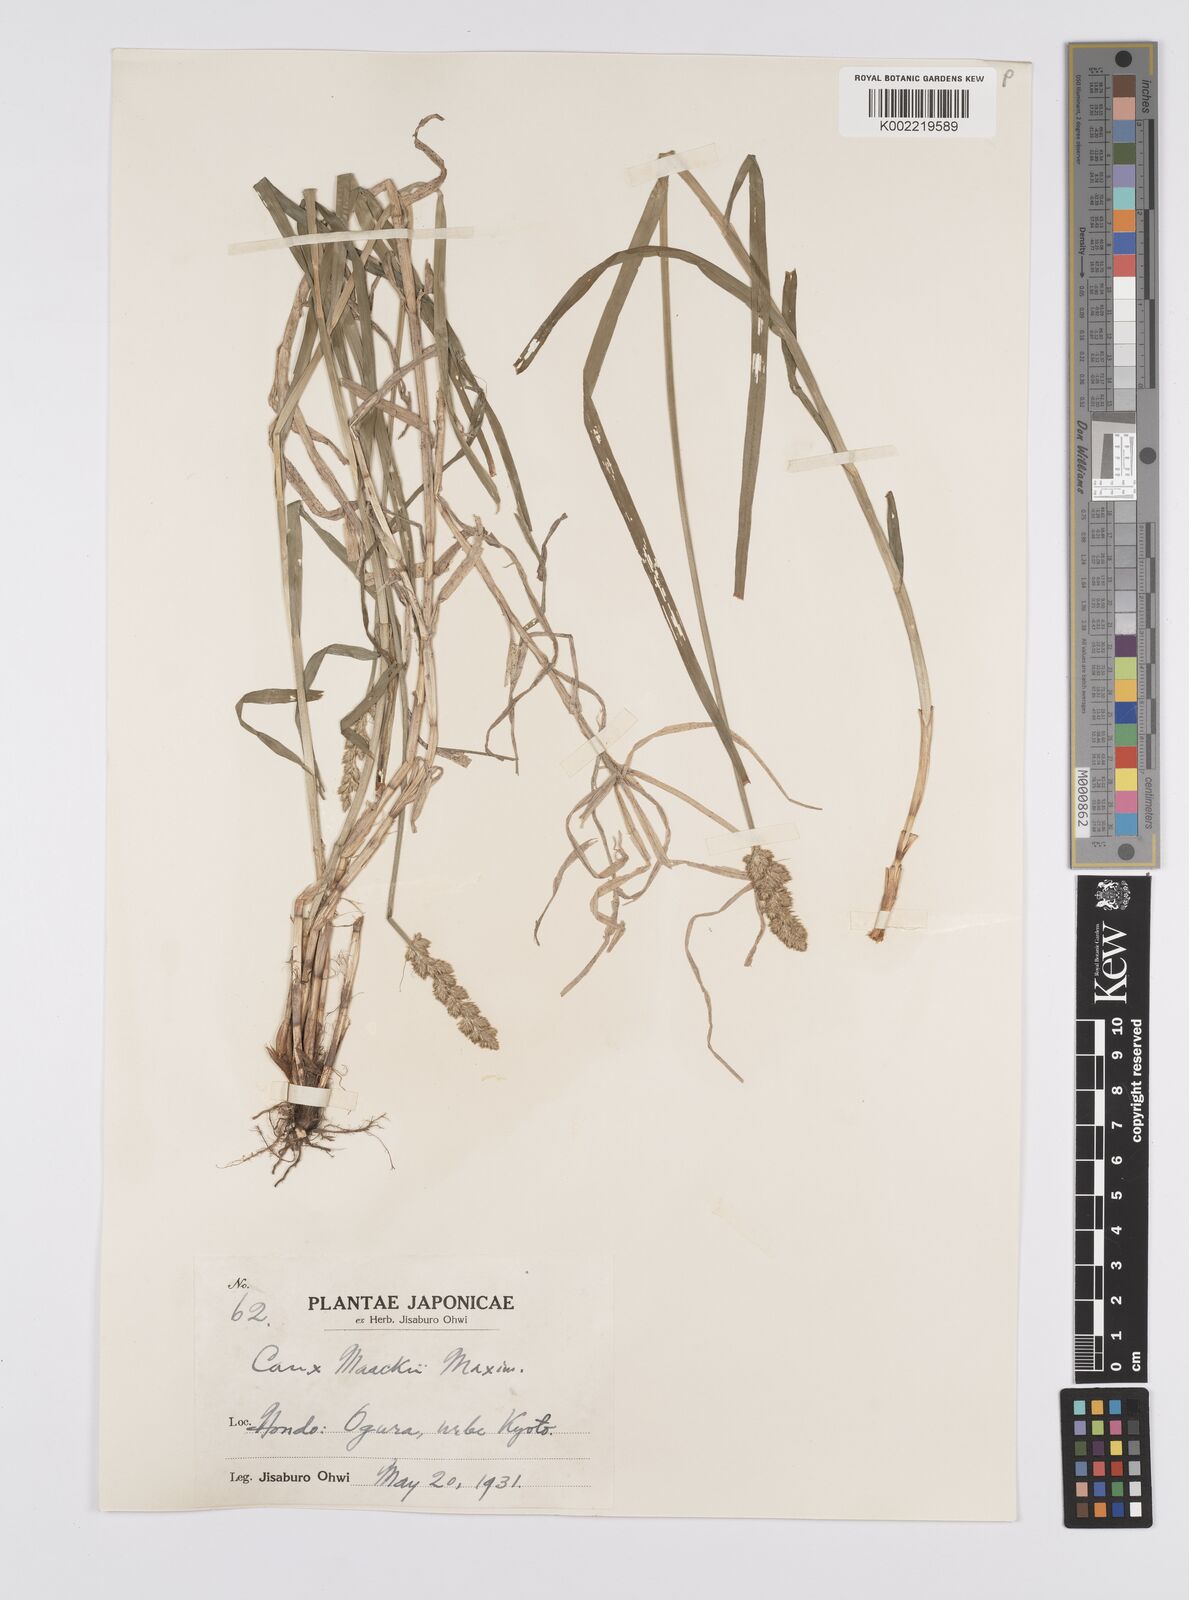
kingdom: Plantae
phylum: Tracheophyta
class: Liliopsida
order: Poales
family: Cyperaceae
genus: Carex
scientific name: Carex maackii
